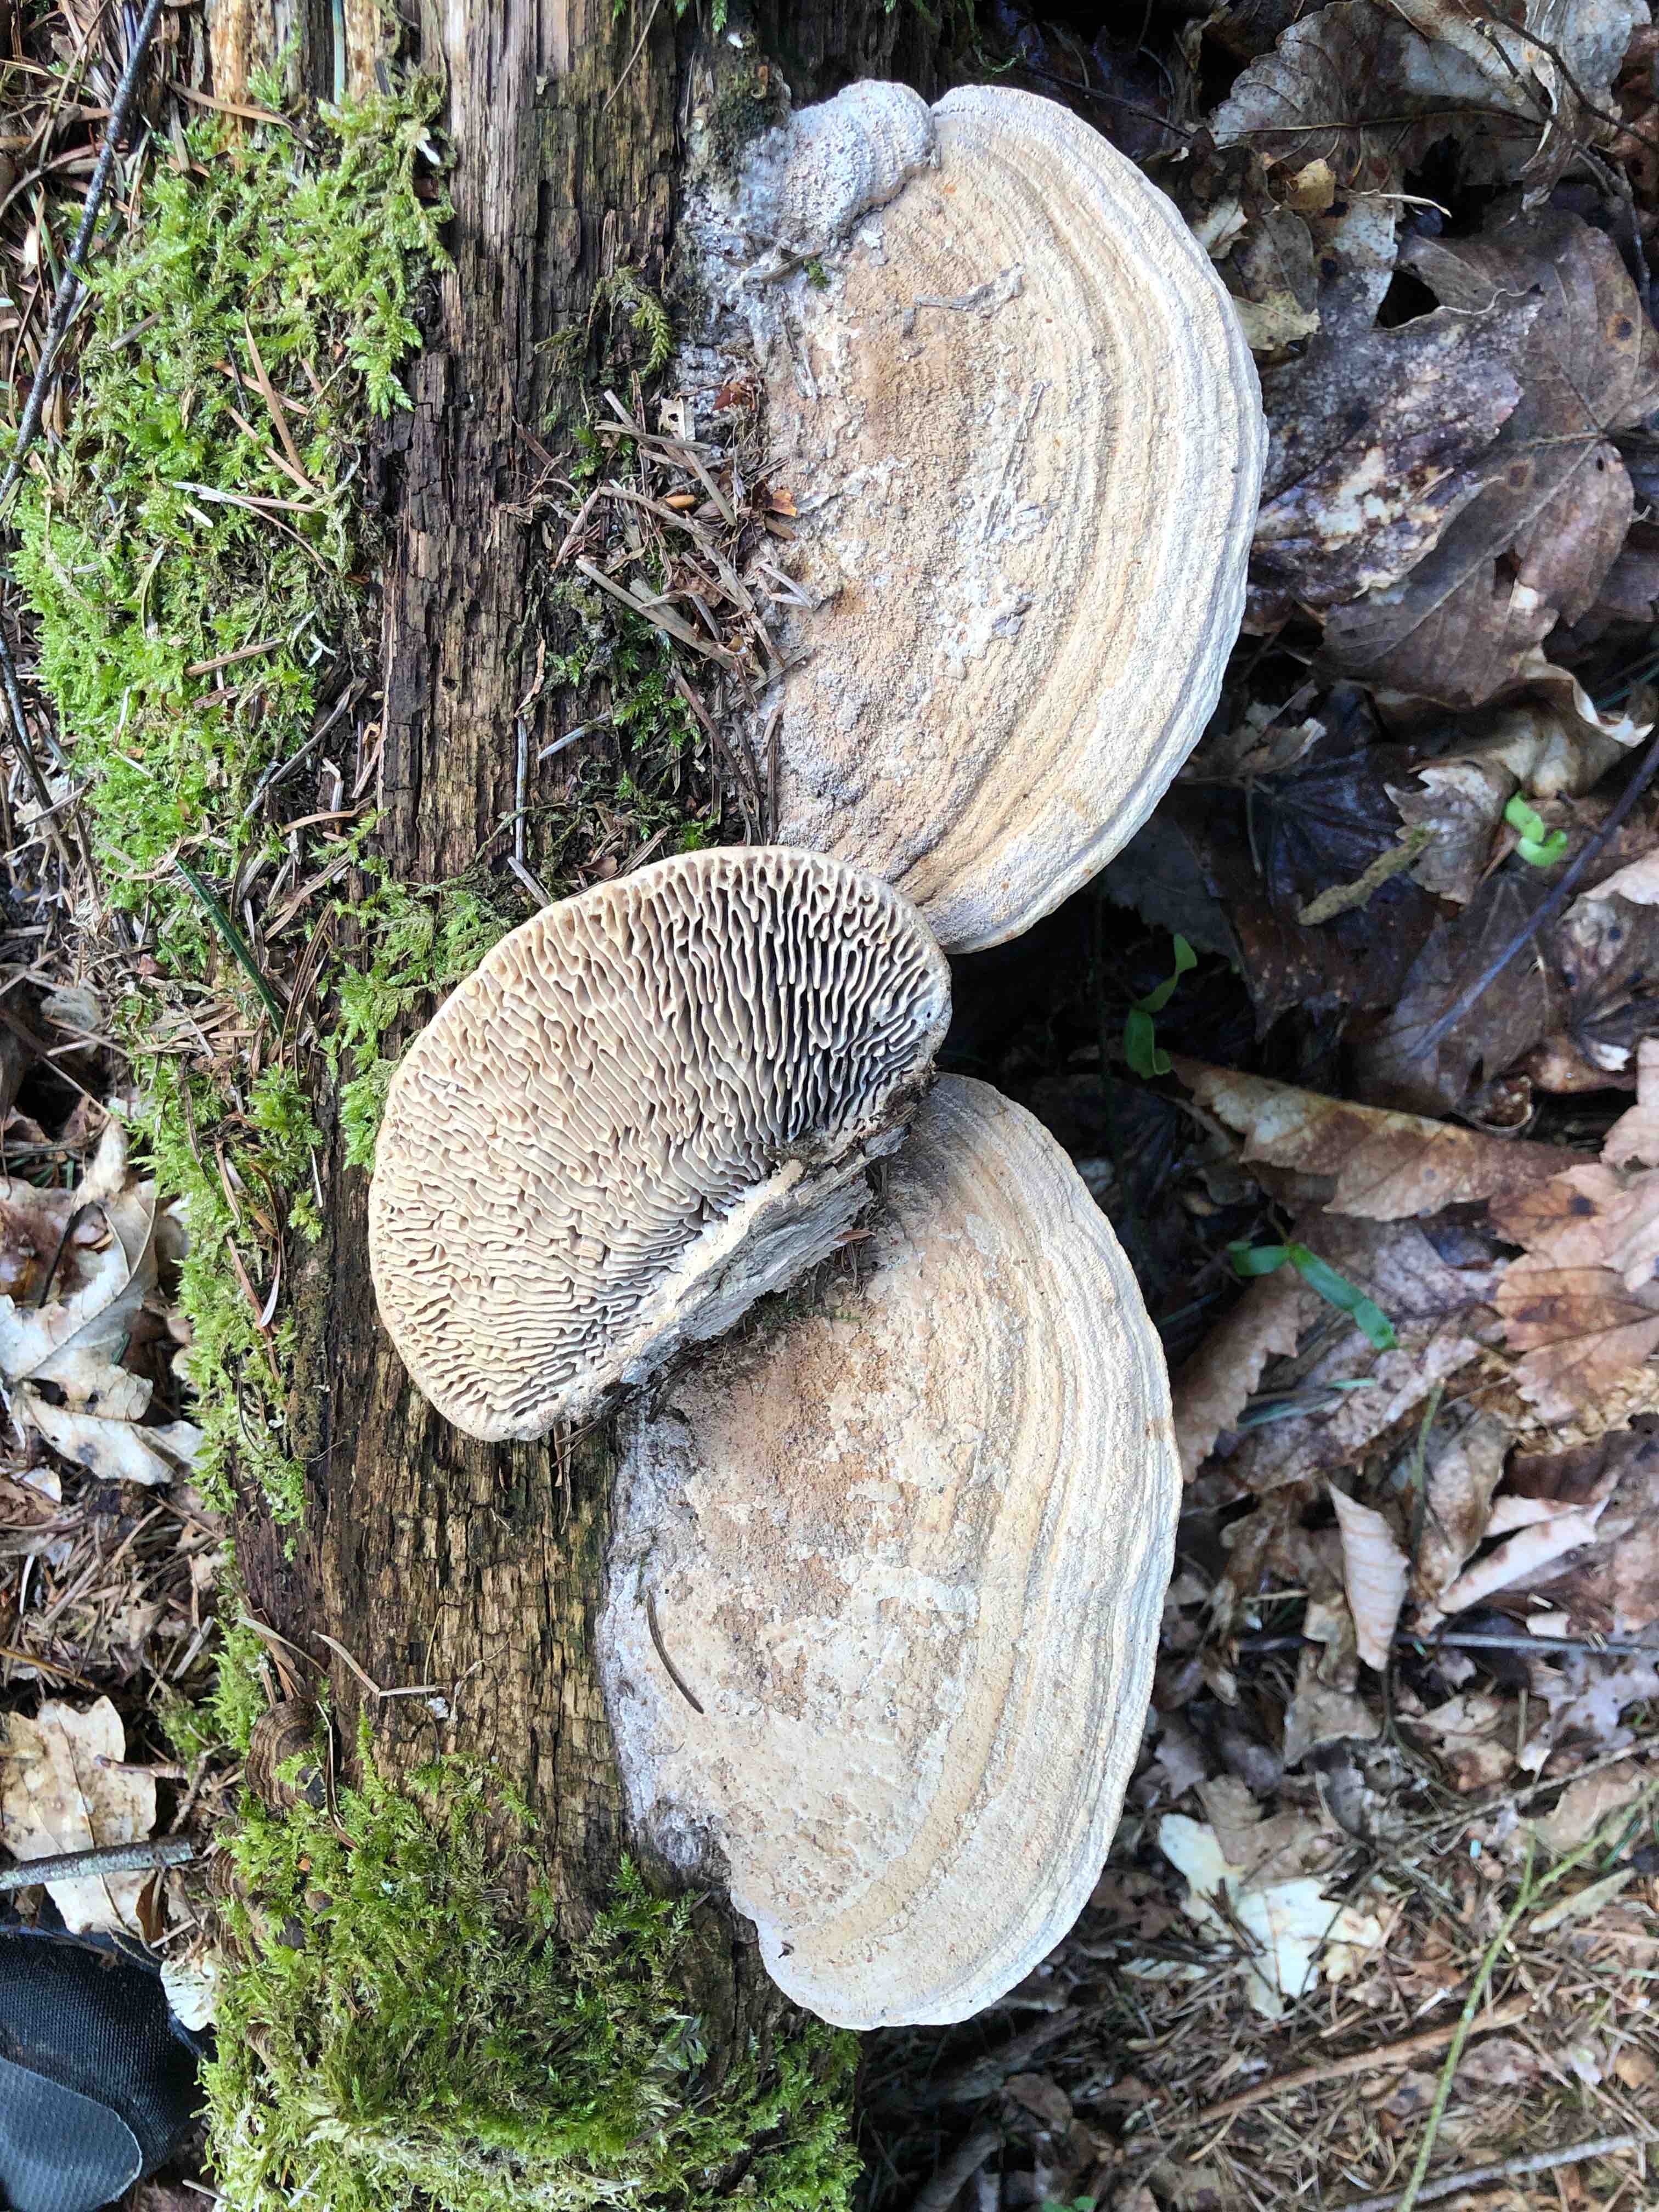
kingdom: Fungi
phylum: Basidiomycota
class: Agaricomycetes
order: Polyporales
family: Fomitopsidaceae
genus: Daedalea
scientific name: Daedalea quercina
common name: ege-labyrintsvamp
